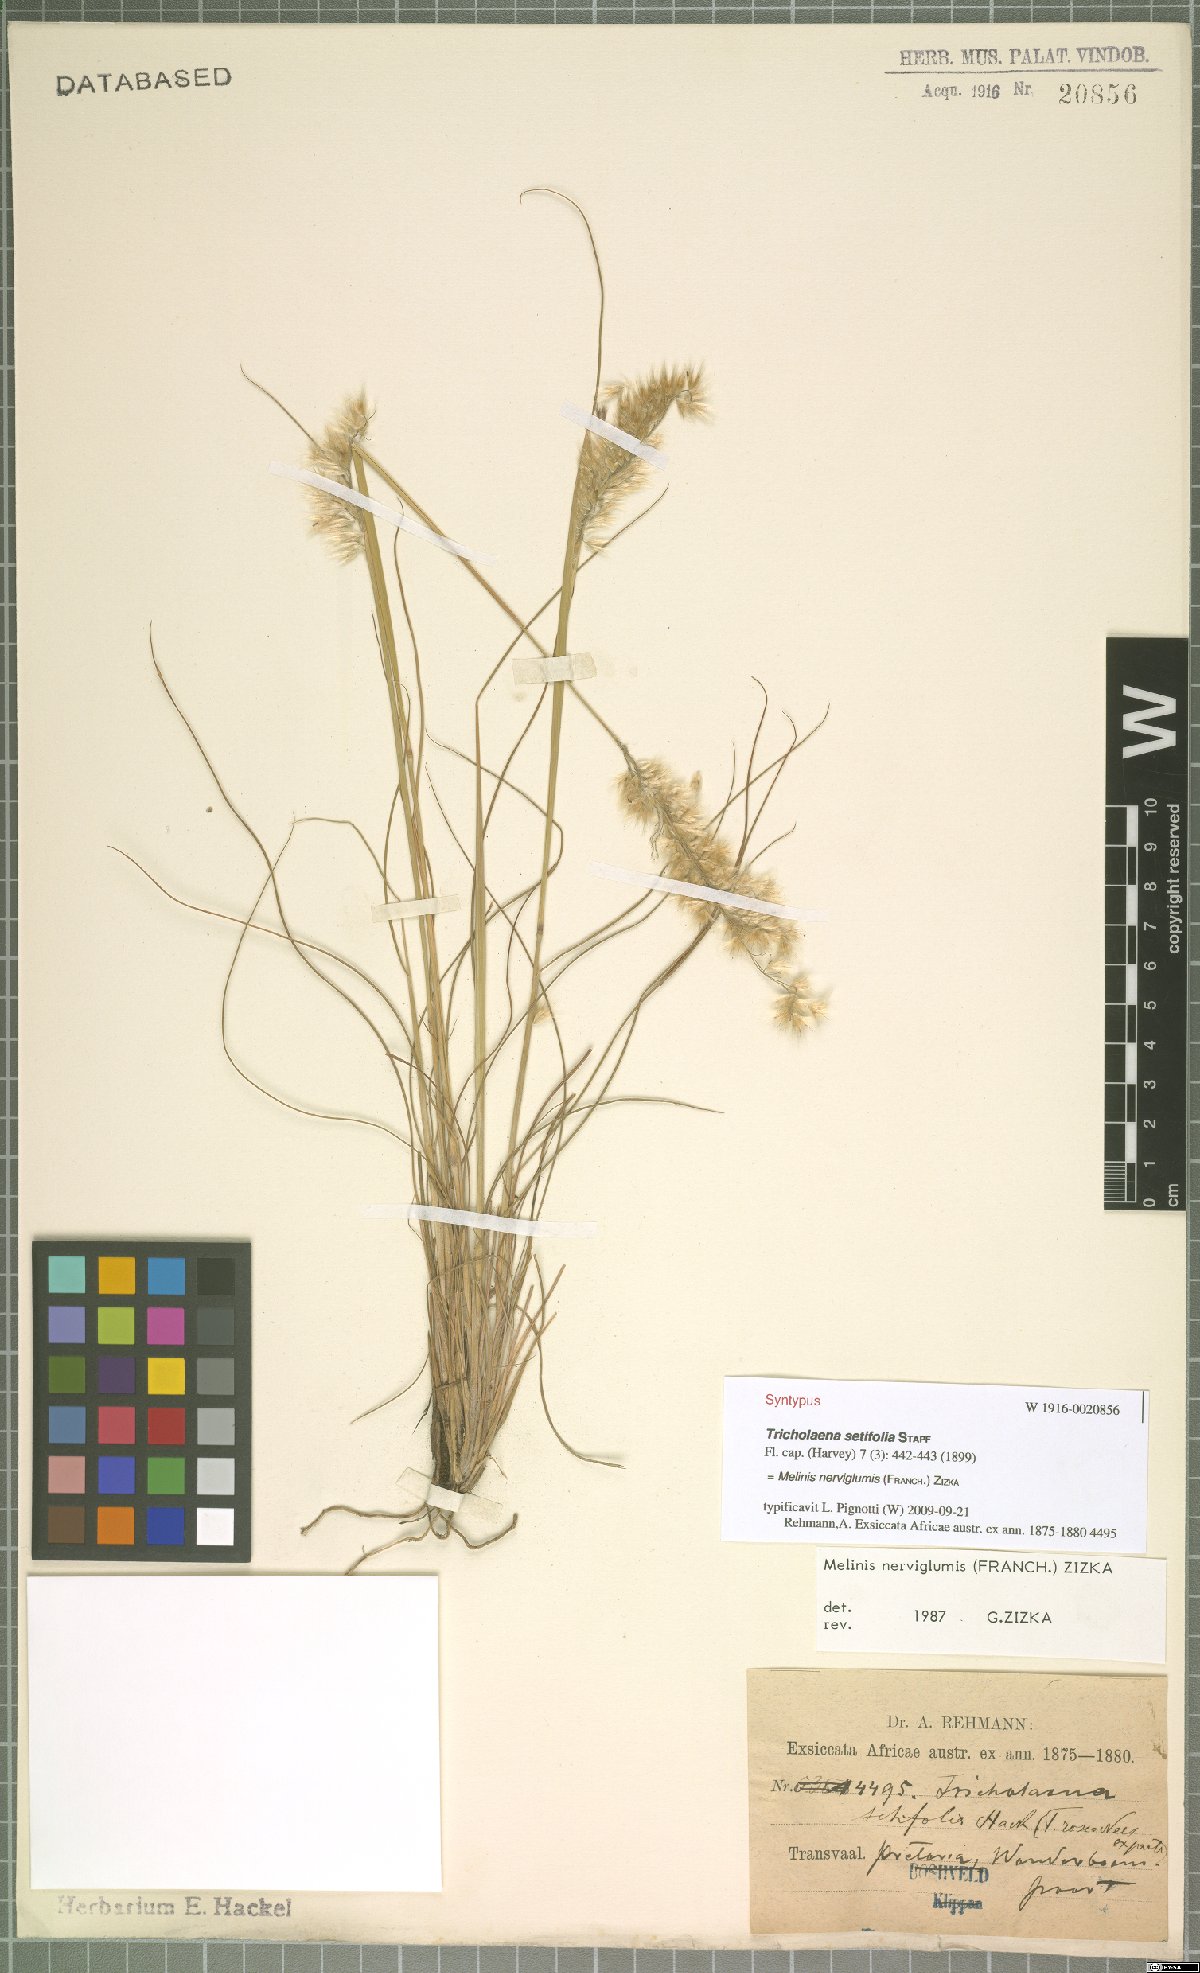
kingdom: Plantae
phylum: Tracheophyta
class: Liliopsida
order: Poales
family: Poaceae
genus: Melinis
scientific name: Melinis nerviglumis
